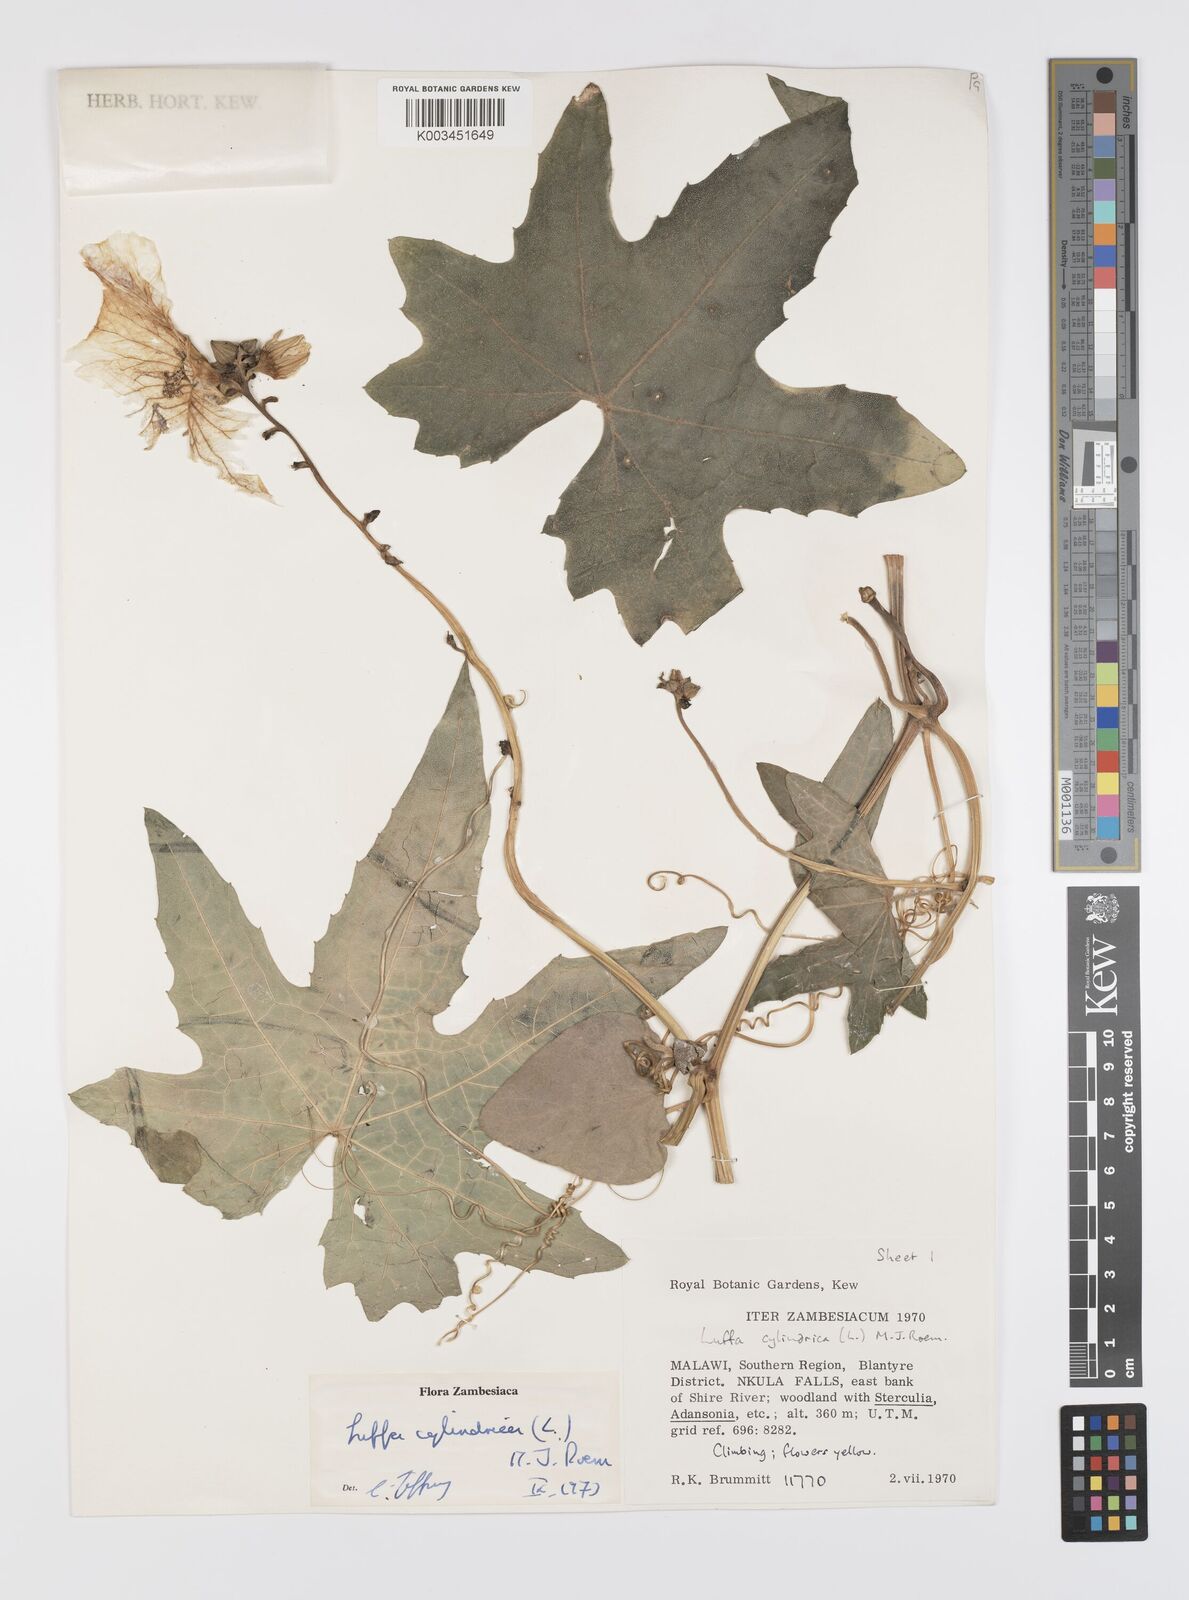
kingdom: Plantae
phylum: Tracheophyta
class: Magnoliopsida
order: Cucurbitales
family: Cucurbitaceae
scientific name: Cucurbitaceae
